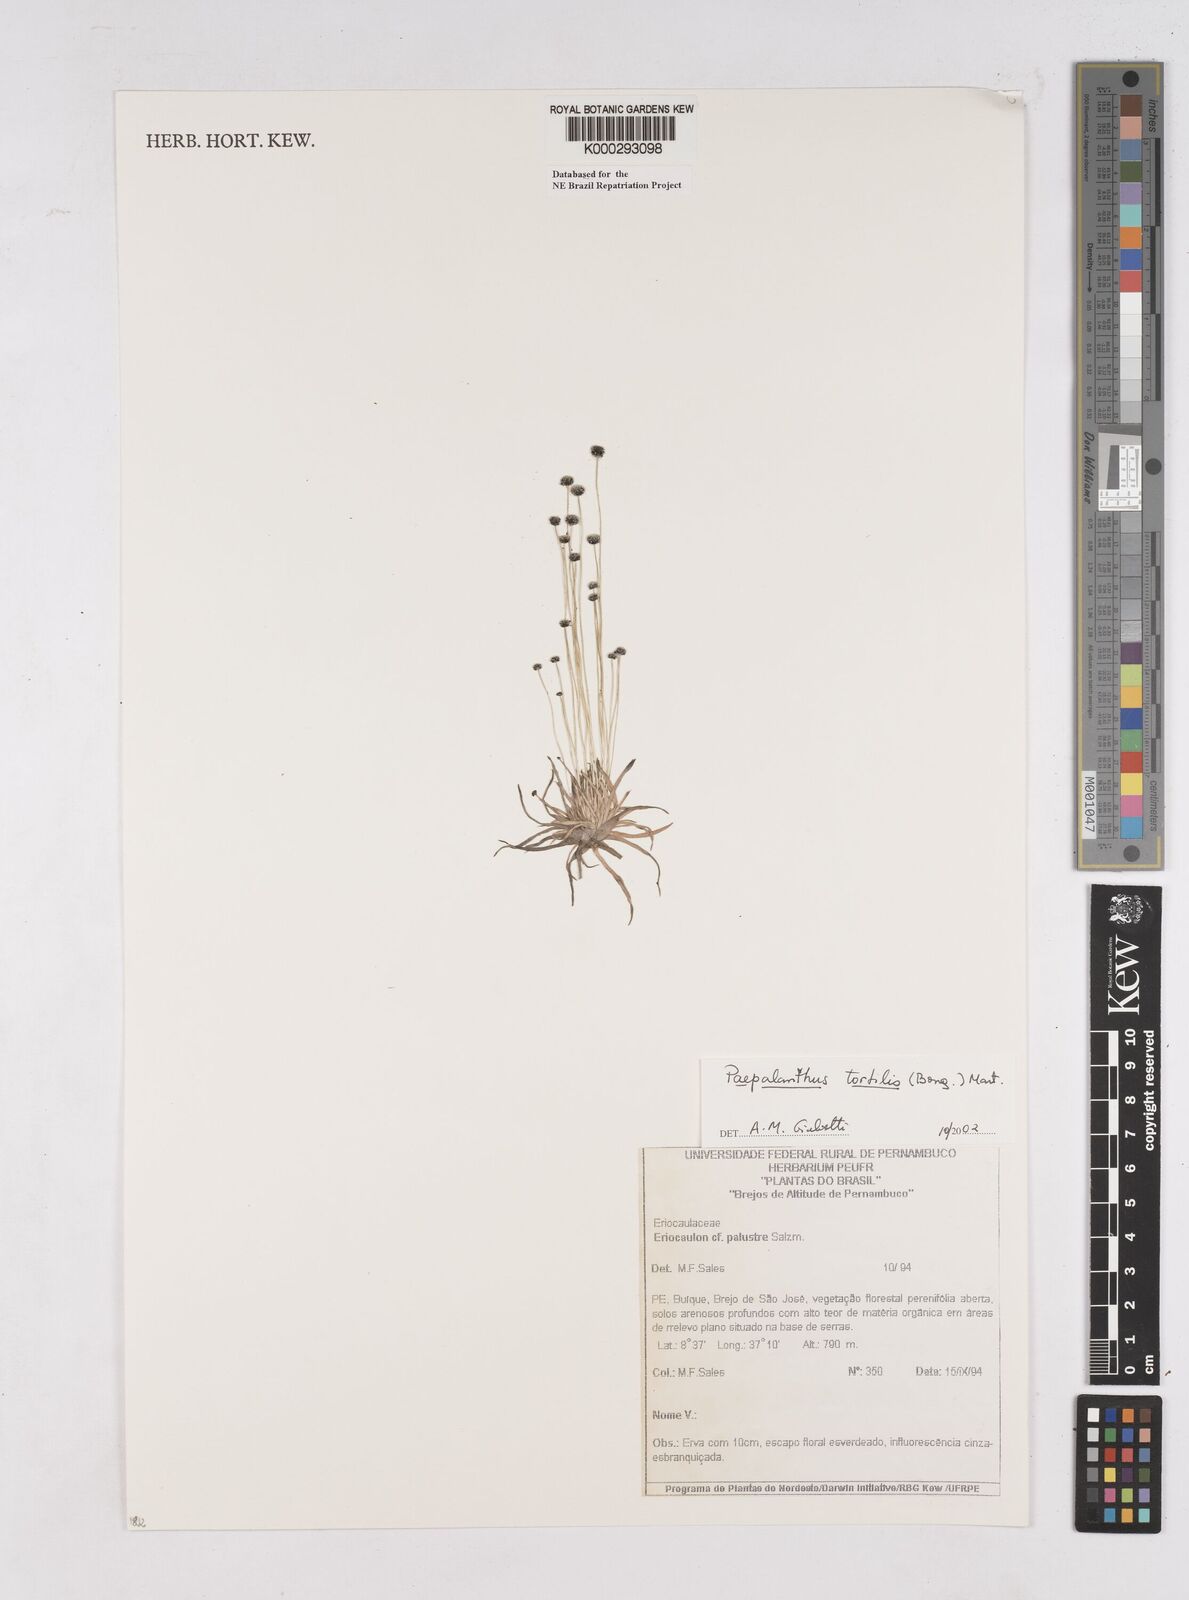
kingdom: Plantae
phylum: Tracheophyta
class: Liliopsida
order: Poales
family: Eriocaulaceae
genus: Paepalanthus
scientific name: Paepalanthus
